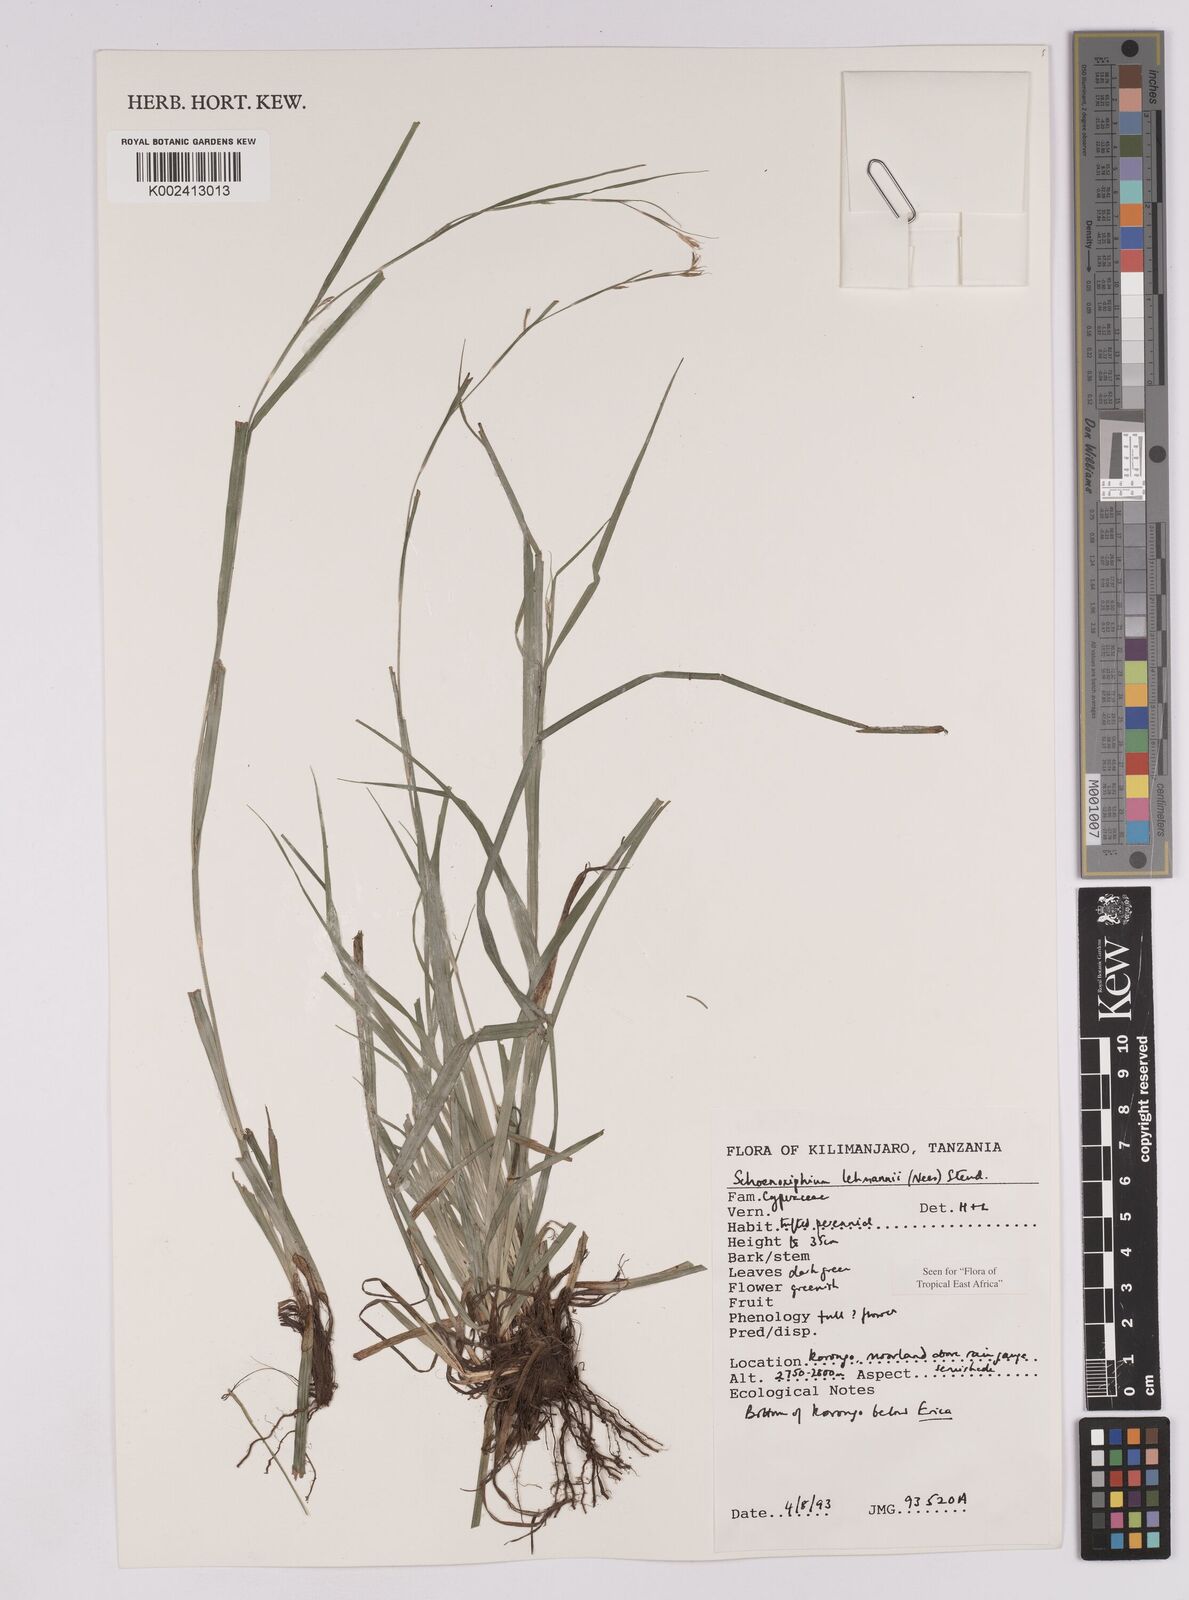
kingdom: Plantae
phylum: Tracheophyta
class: Liliopsida
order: Poales
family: Cyperaceae
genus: Carex
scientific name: Carex uhligii
